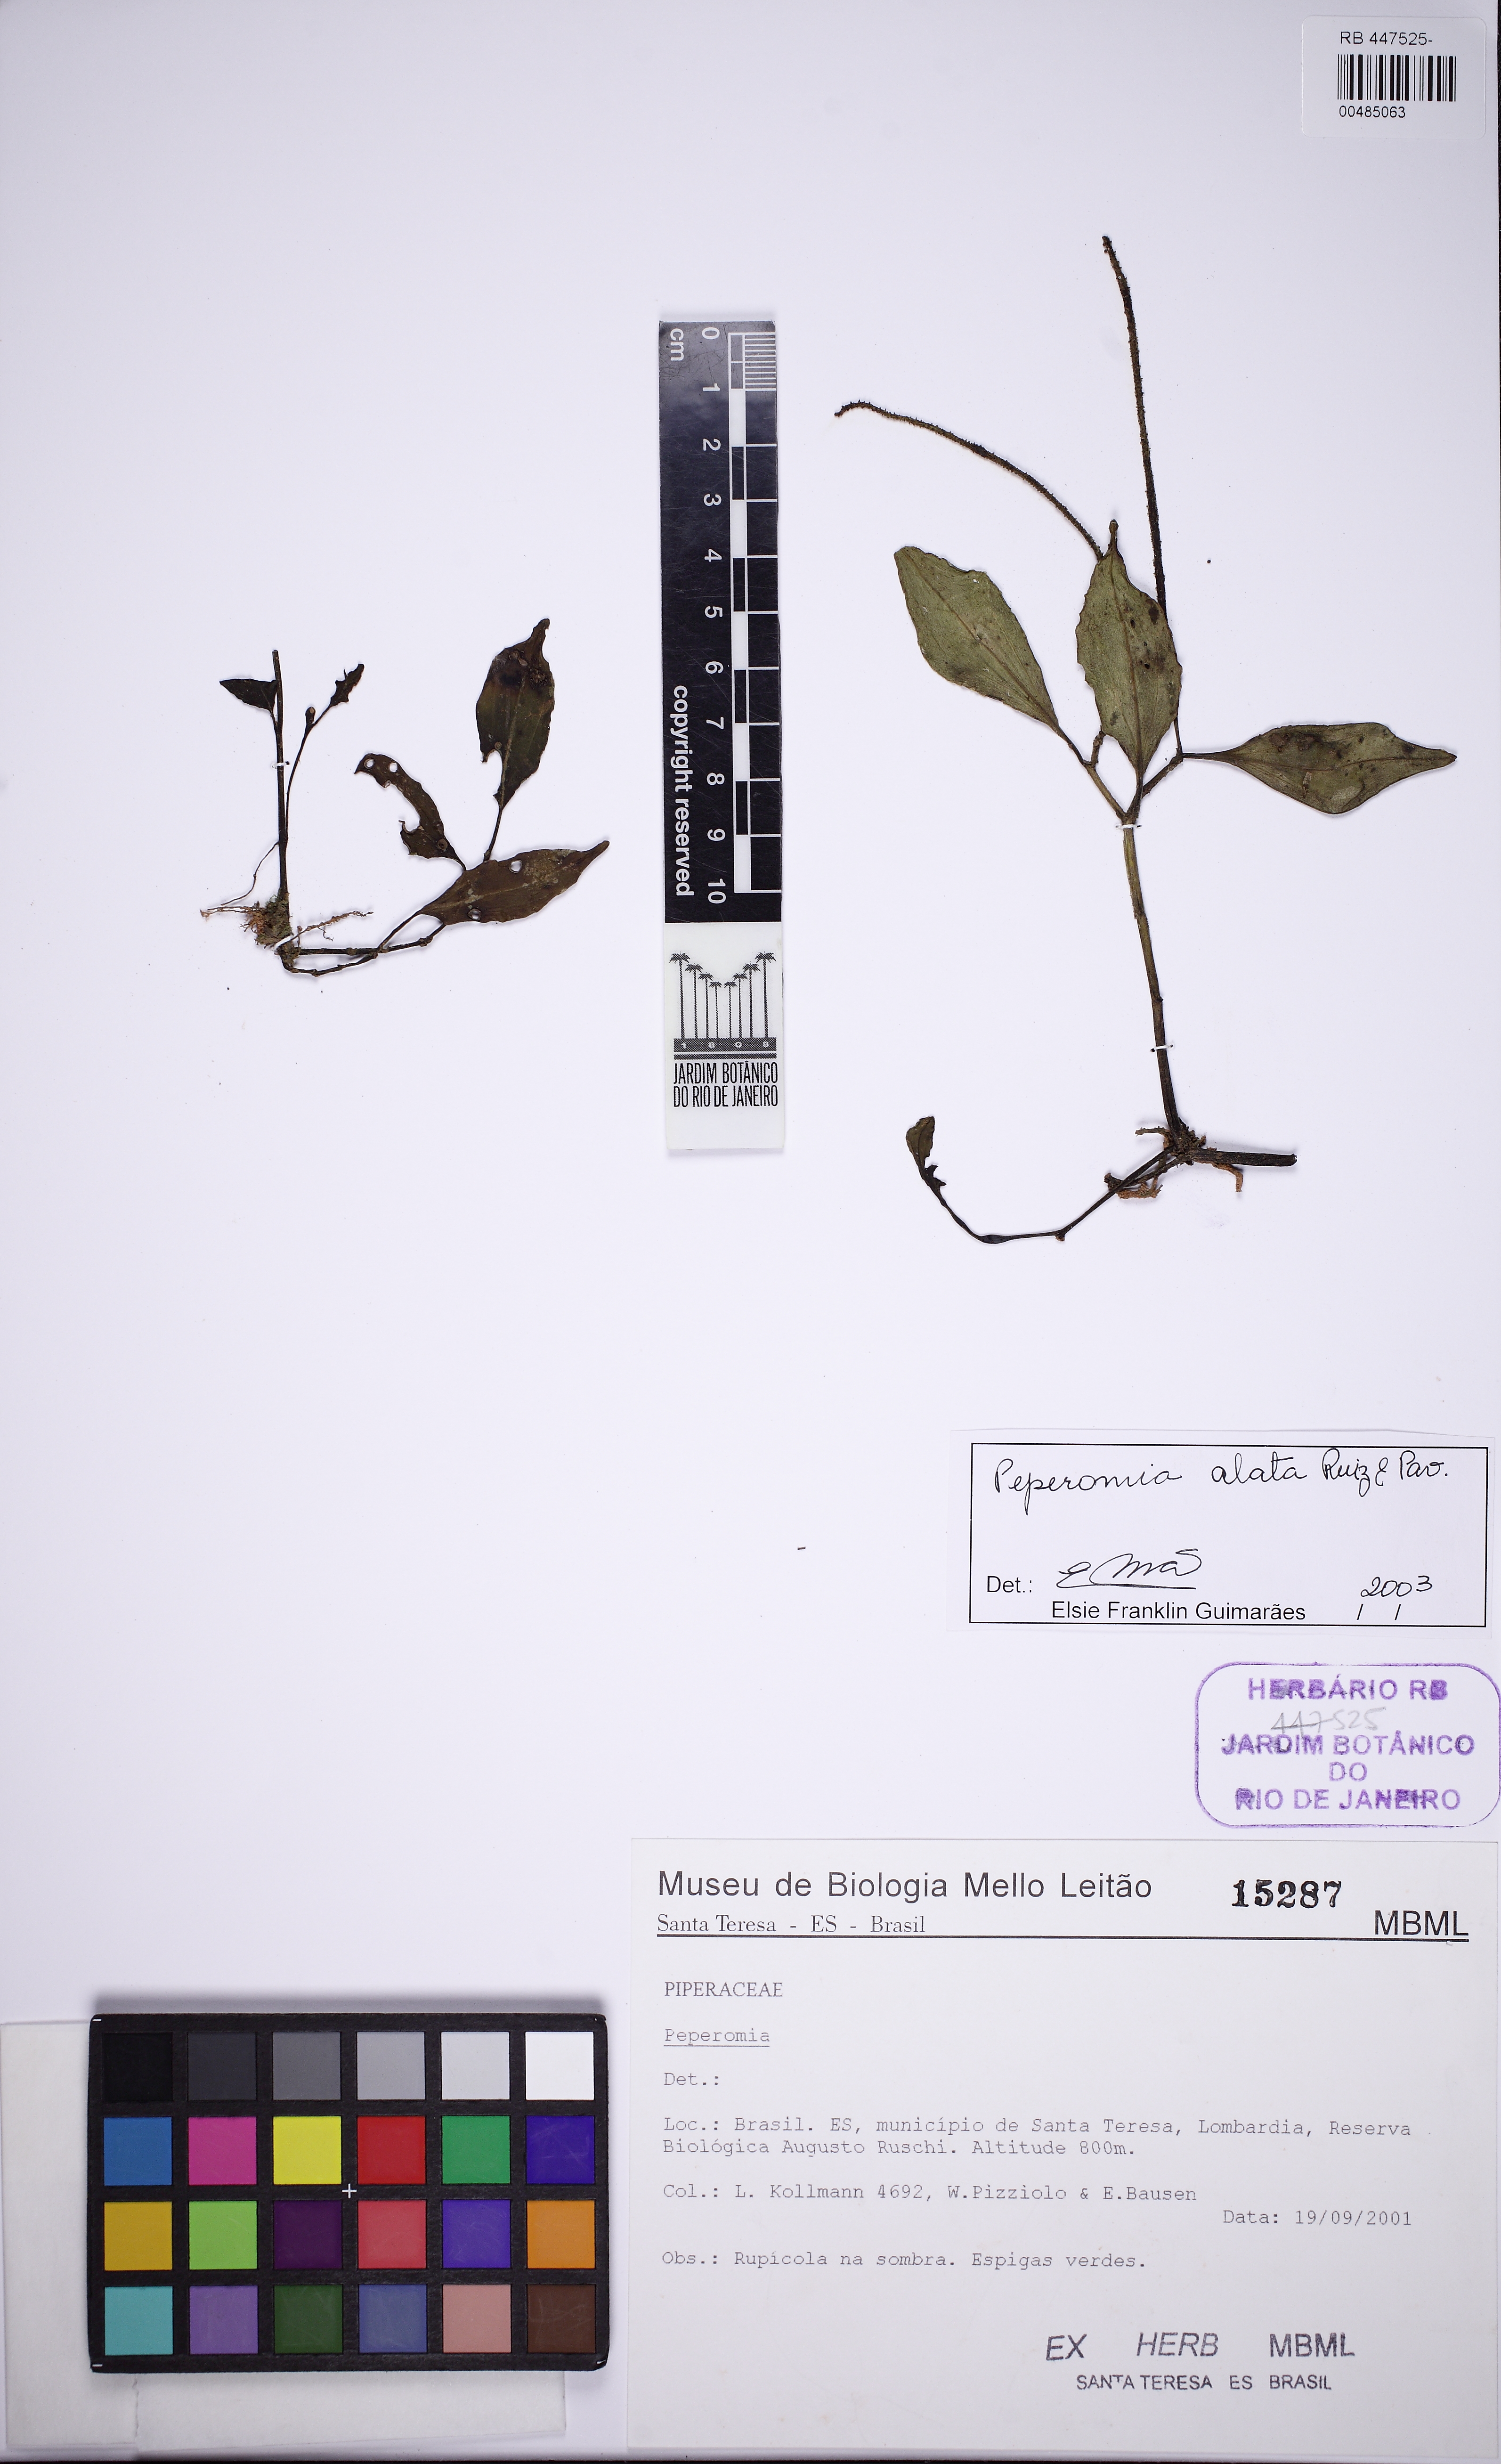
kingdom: Plantae
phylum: Tracheophyta
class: Magnoliopsida
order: Piperales
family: Piperaceae
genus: Peperomia
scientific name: Peperomia alata
